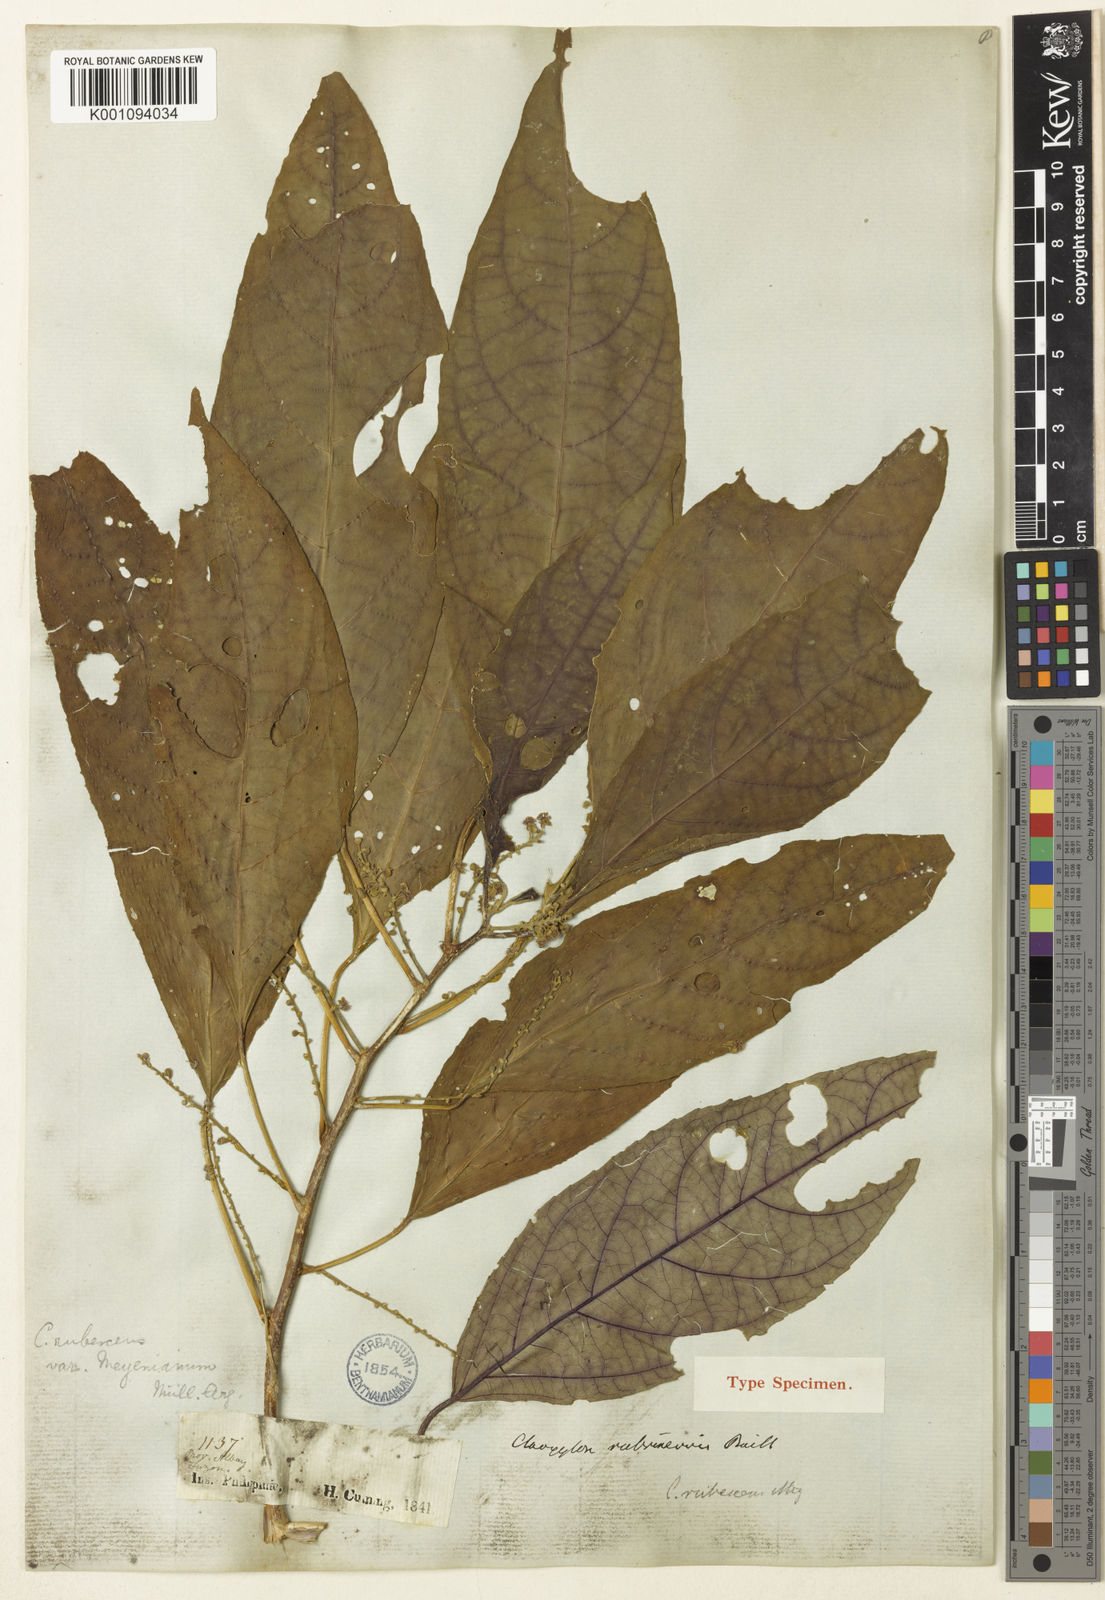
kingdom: Plantae
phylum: Tracheophyta
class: Magnoliopsida
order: Malpighiales
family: Euphorbiaceae
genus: Claoxylon
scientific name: Claoxylon brachyandrum
